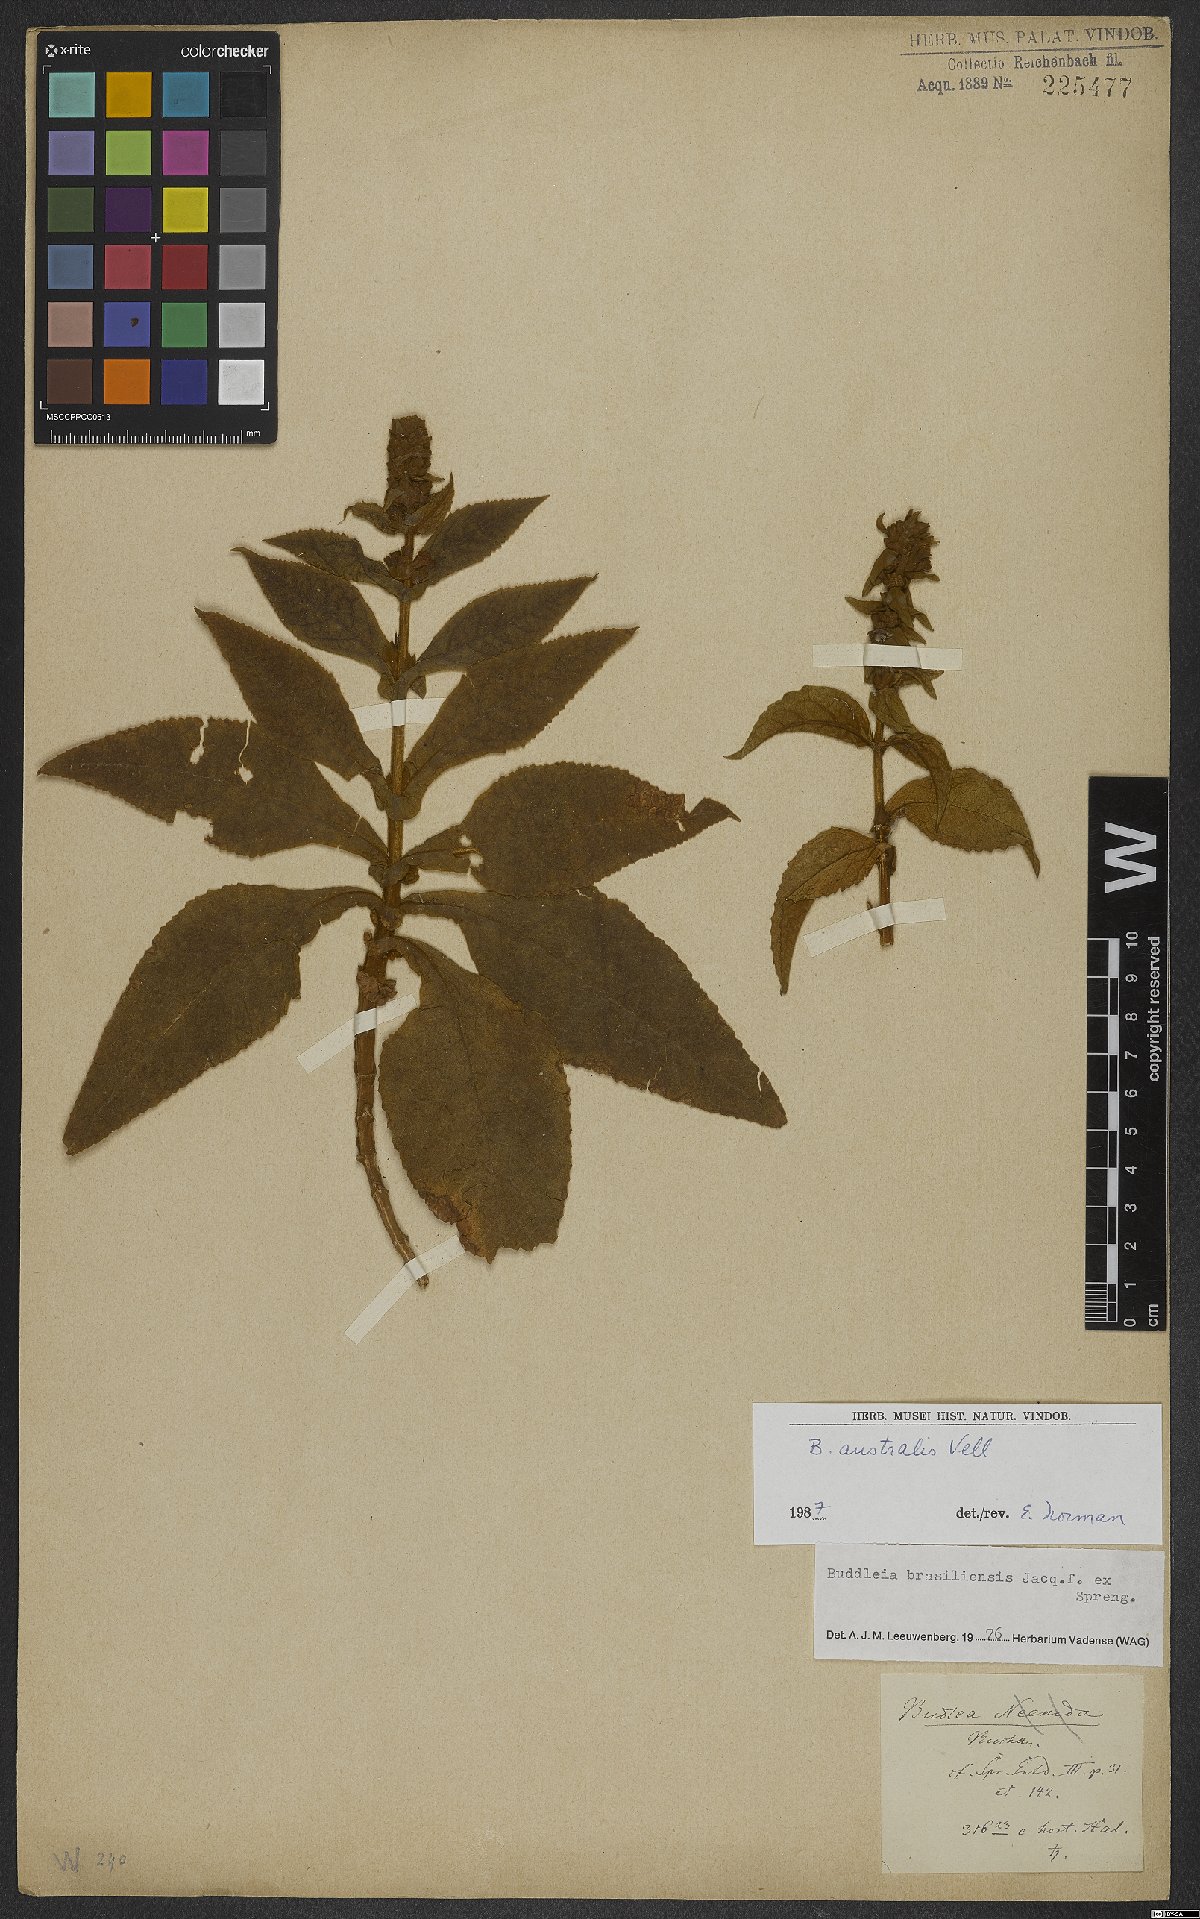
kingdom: Plantae
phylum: Tracheophyta
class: Magnoliopsida
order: Lamiales
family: Scrophulariaceae
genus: Buddleja
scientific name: Buddleja stachyoides
